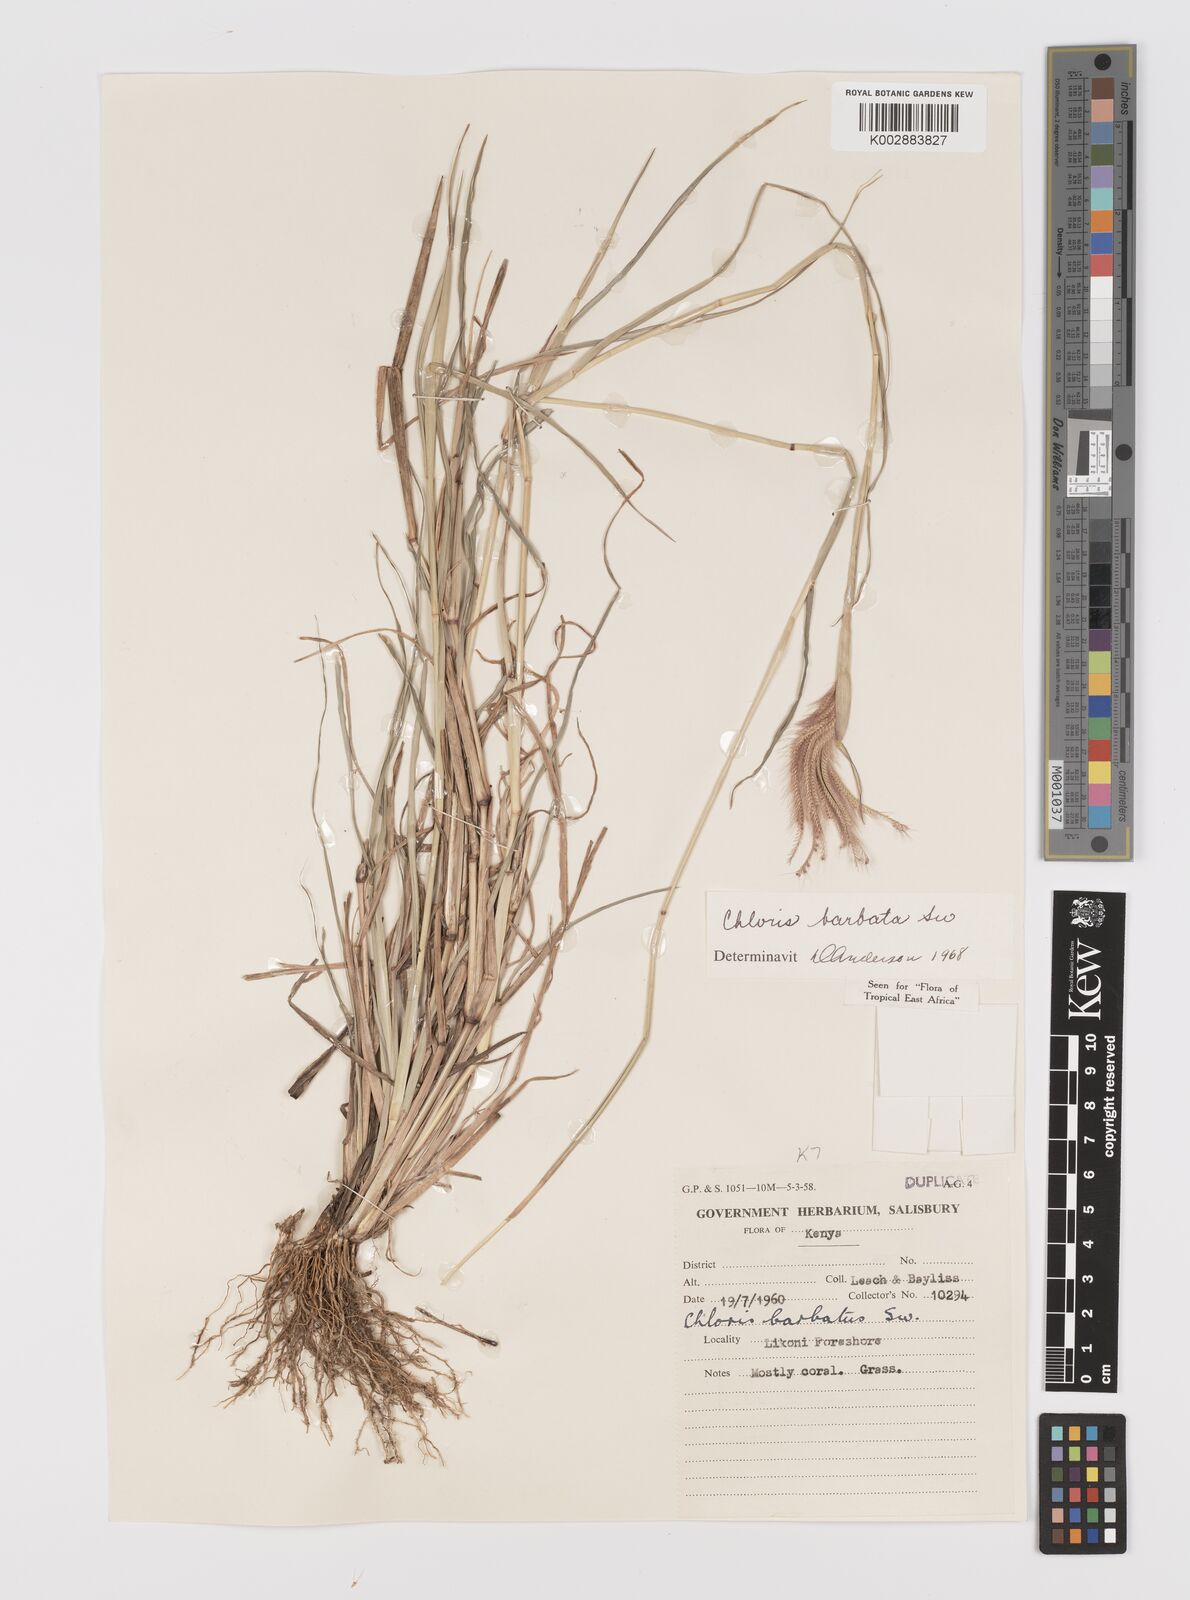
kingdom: Plantae
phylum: Tracheophyta
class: Liliopsida
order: Poales
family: Poaceae
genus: Chloris
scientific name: Chloris barbata
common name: Swollen fingergrass
